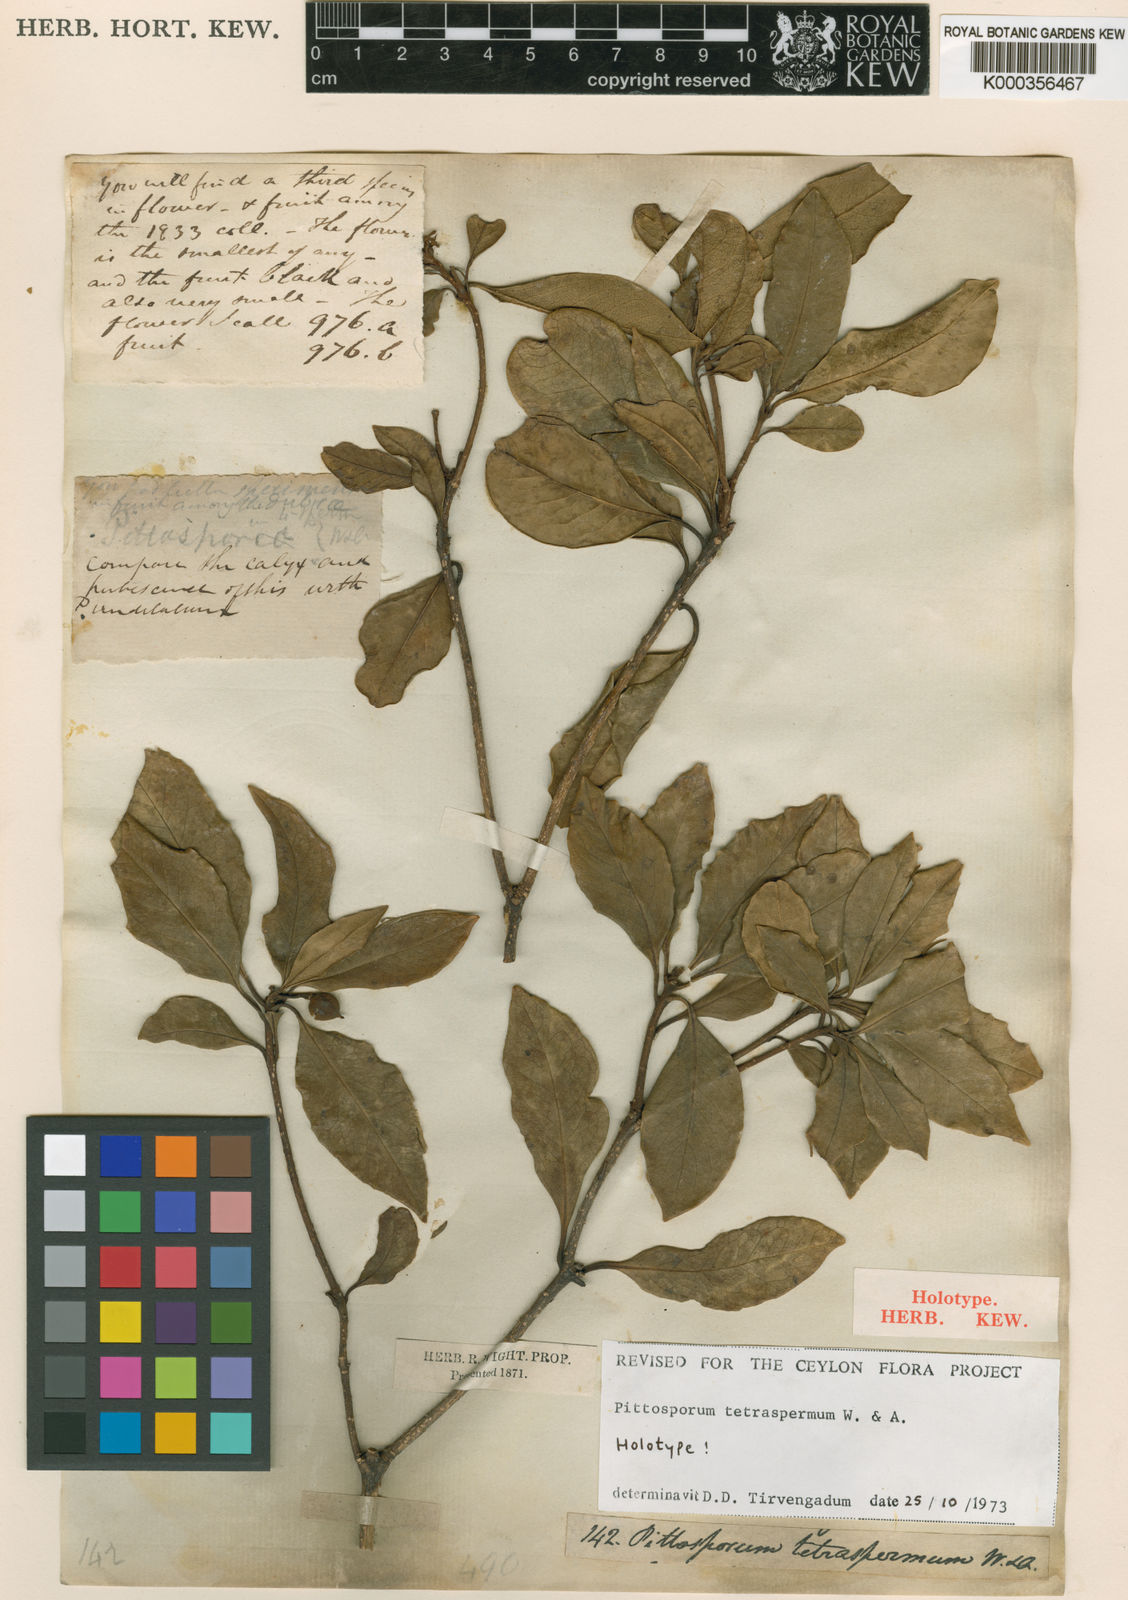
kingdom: Plantae
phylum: Tracheophyta
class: Magnoliopsida
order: Apiales
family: Pittosporaceae
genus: Pittosporum
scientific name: Pittosporum tetraspermum
